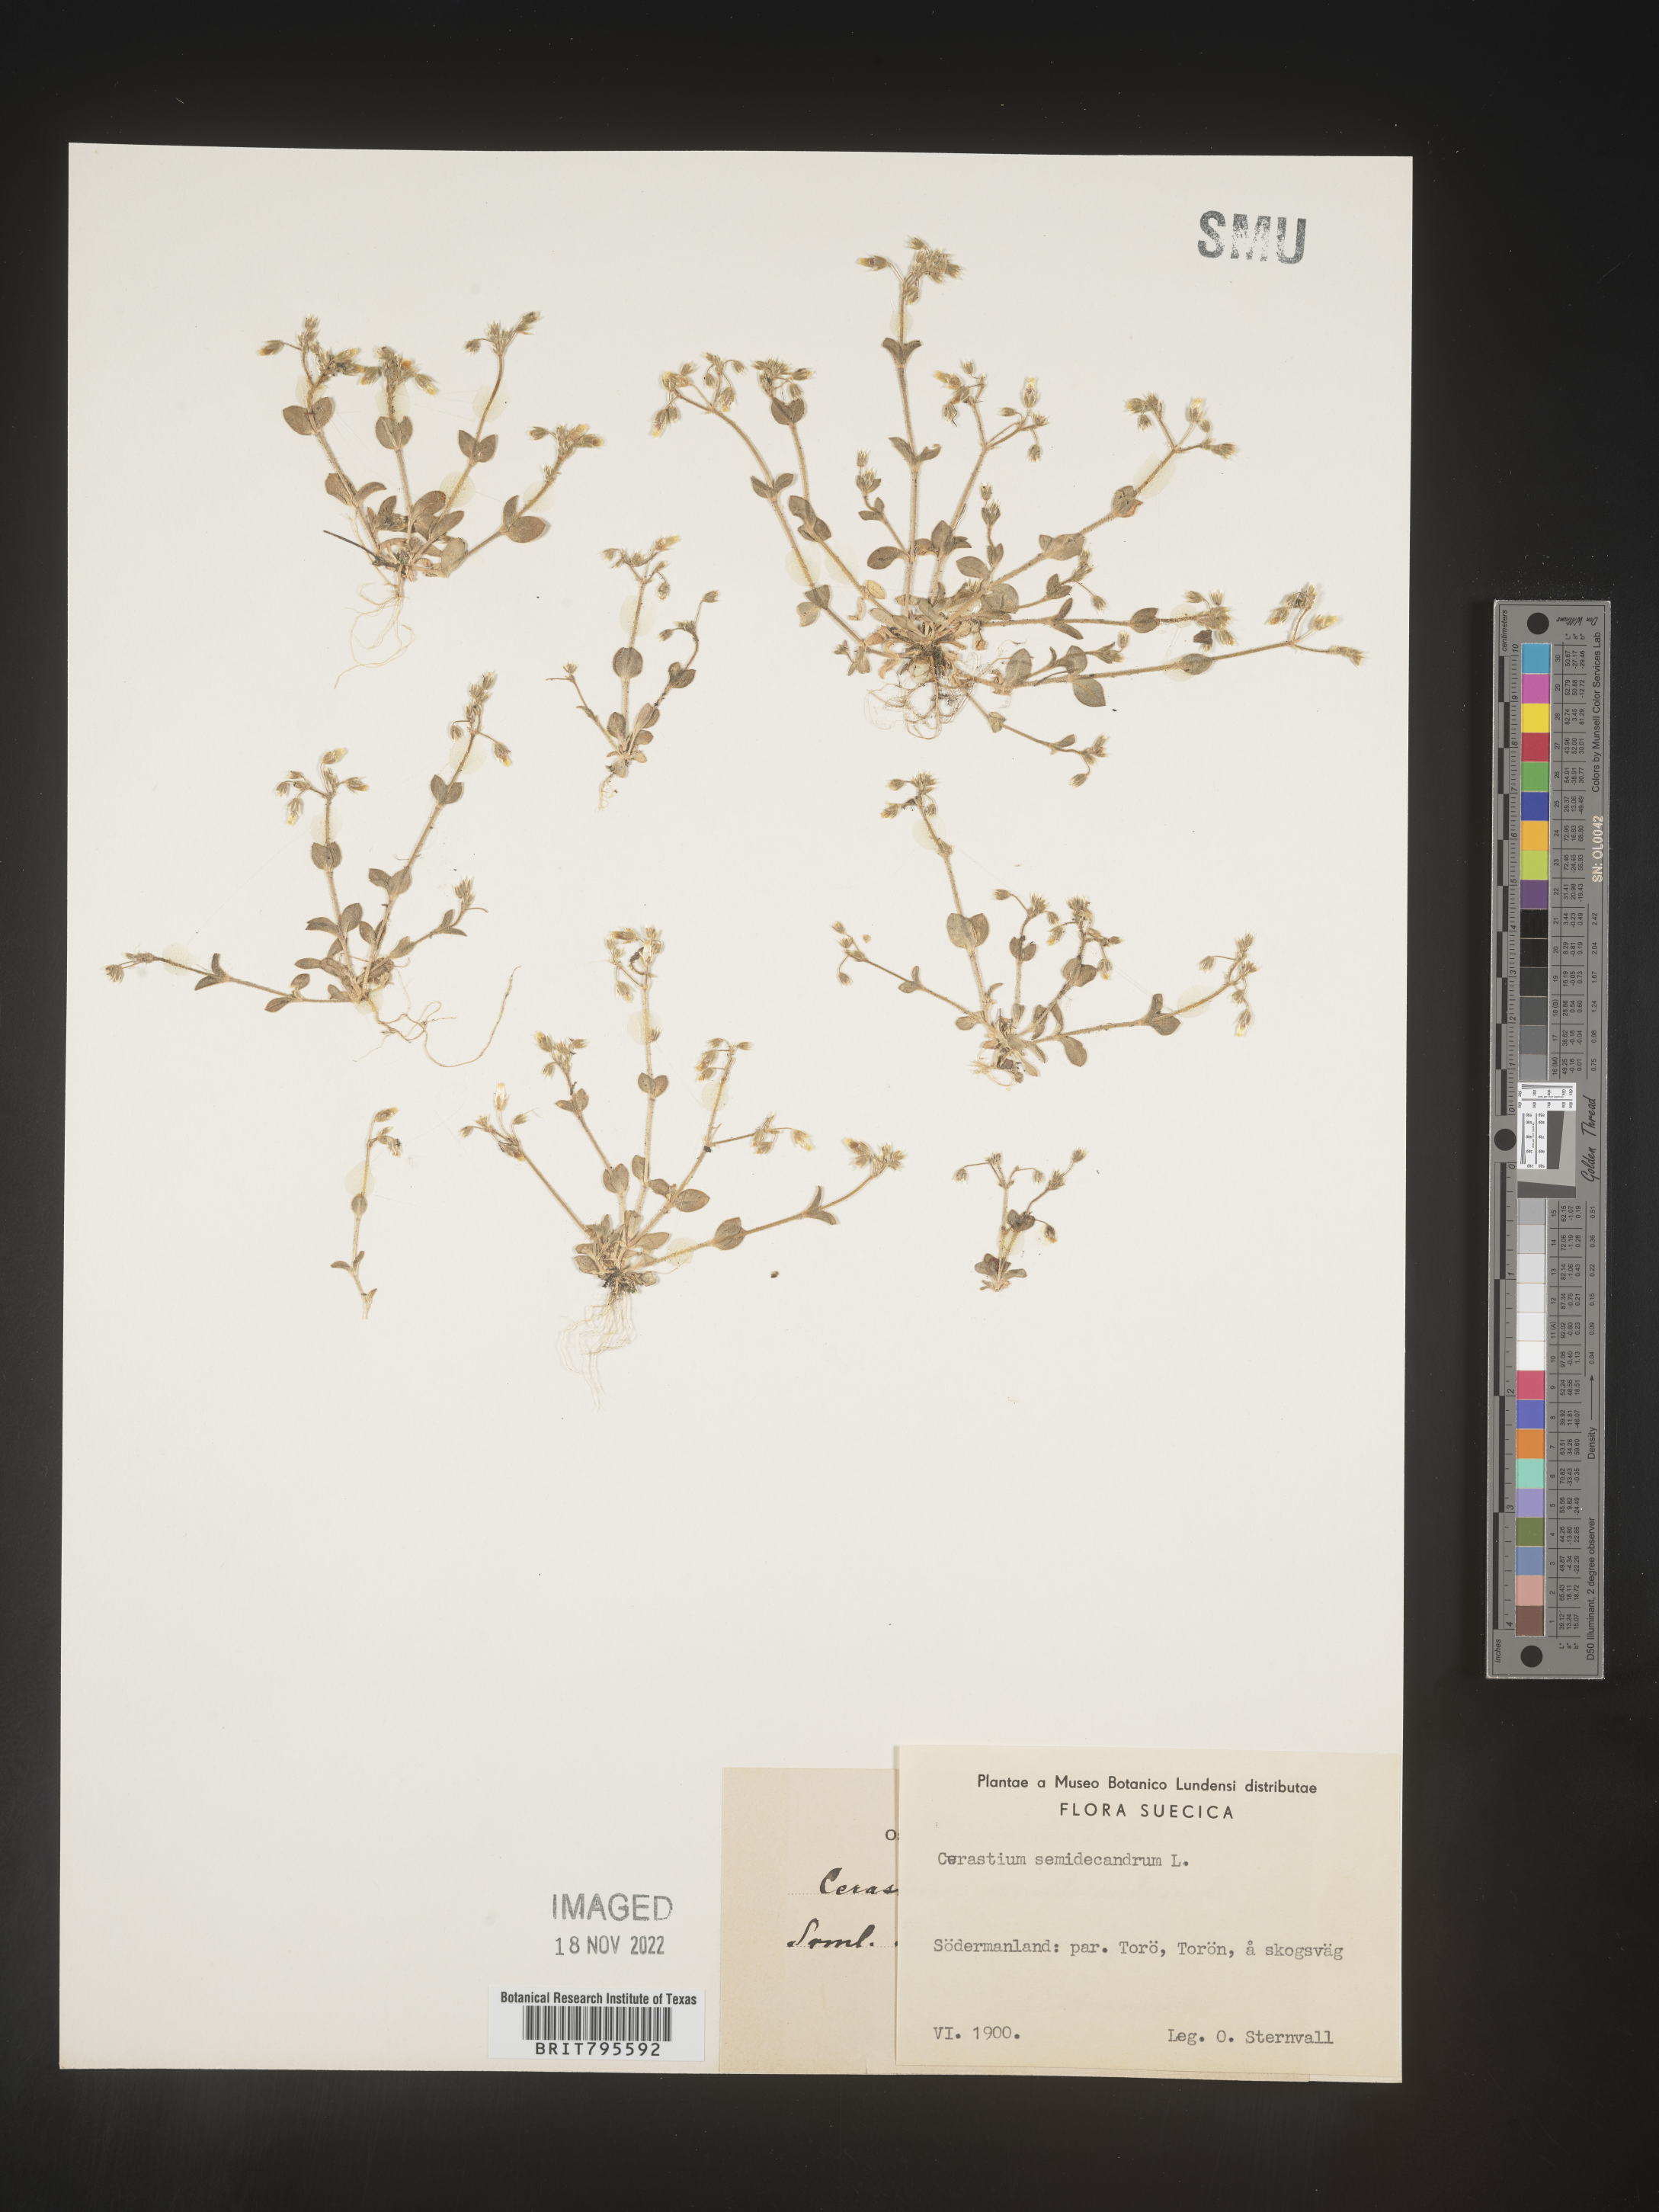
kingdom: Plantae
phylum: Tracheophyta
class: Magnoliopsida
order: Caryophyllales
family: Caryophyllaceae
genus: Cerastium
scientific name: Cerastium
